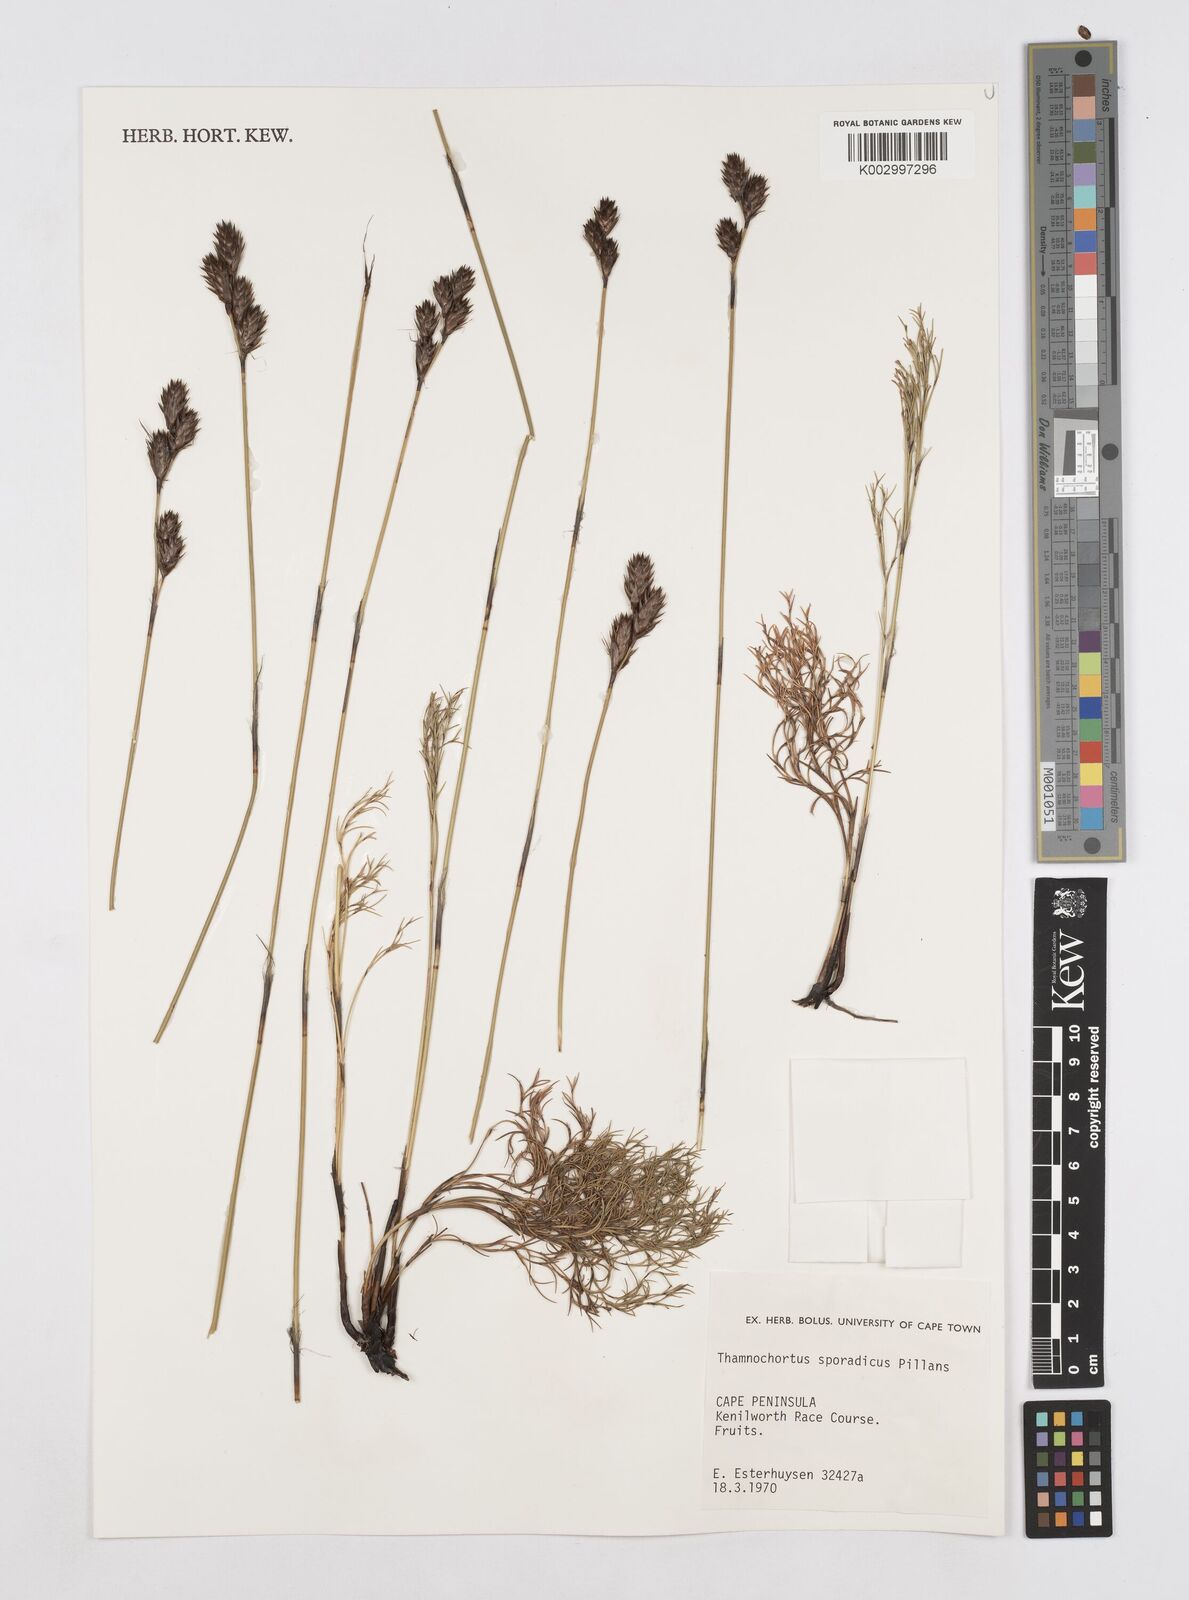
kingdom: Plantae
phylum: Tracheophyta
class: Liliopsida
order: Poales
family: Restionaceae
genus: Thamnochortus
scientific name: Thamnochortus sporadicus
